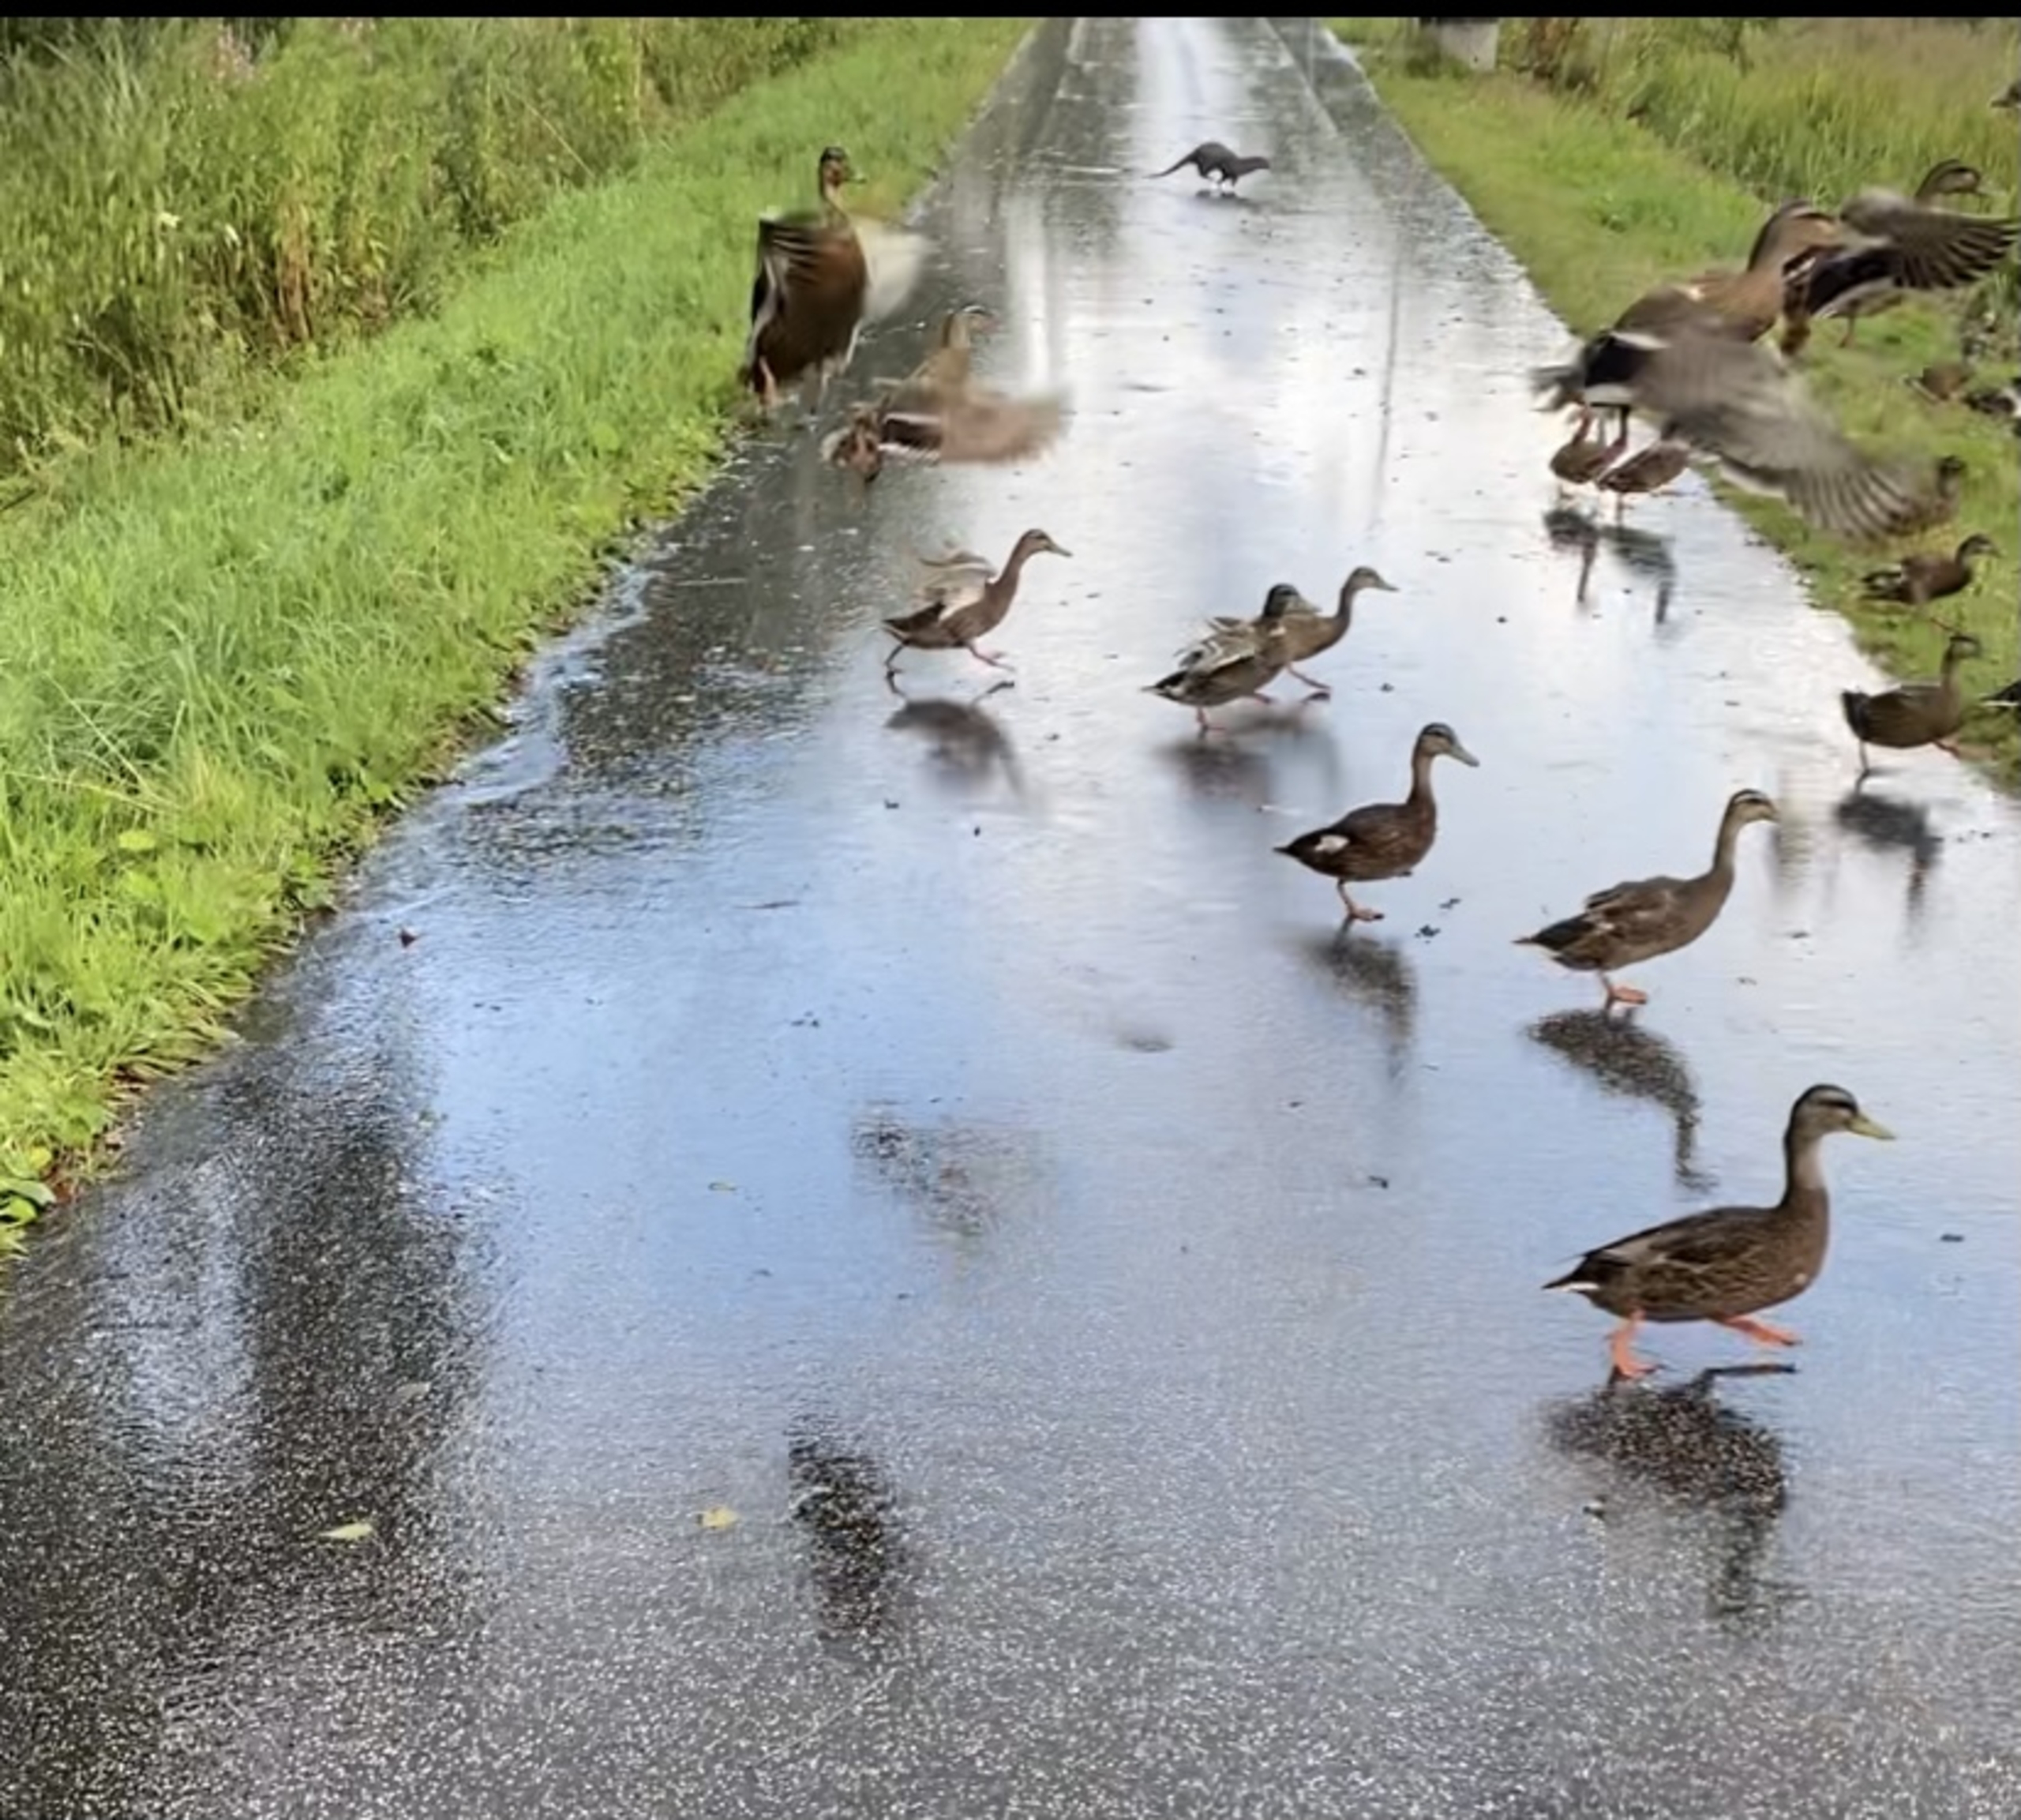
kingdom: Animalia
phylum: Chordata
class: Mammalia
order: Carnivora
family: Mustelidae
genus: Lutra
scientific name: Lutra lutra
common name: Odder
